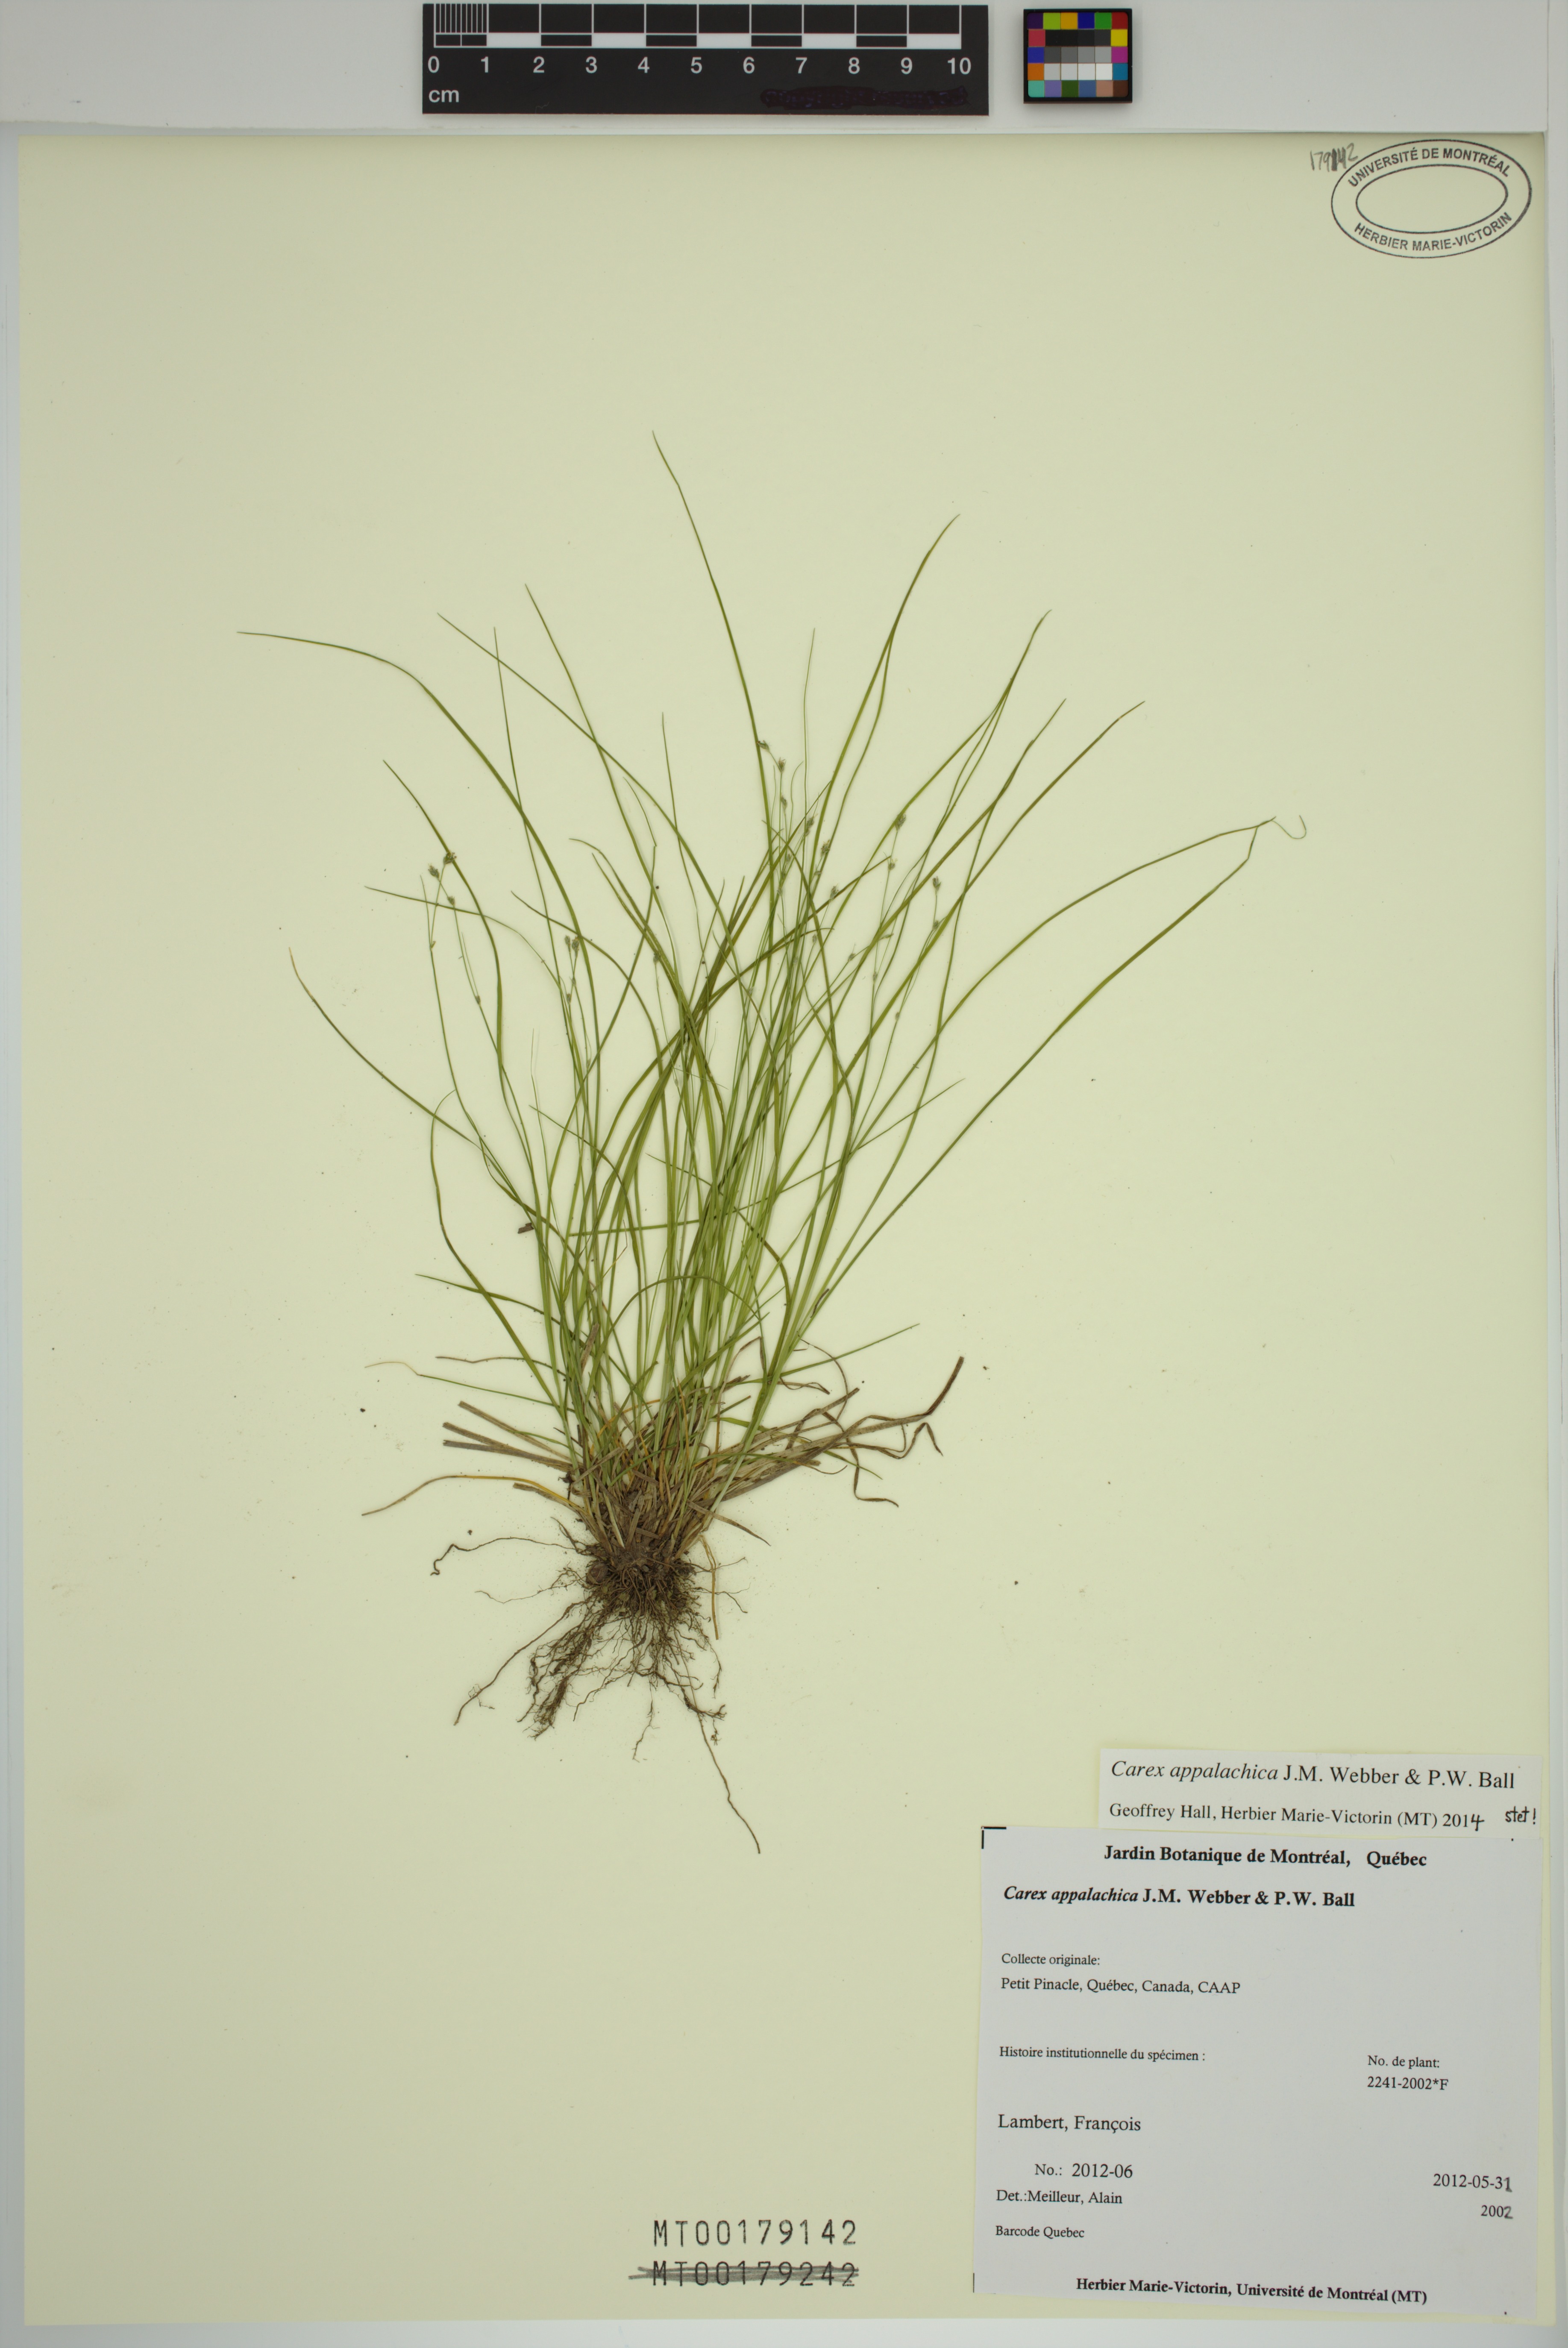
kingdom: Plantae
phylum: Tracheophyta
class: Liliopsida
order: Poales
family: Cyperaceae
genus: Carex
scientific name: Carex appalachica
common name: Appalachian sedge
